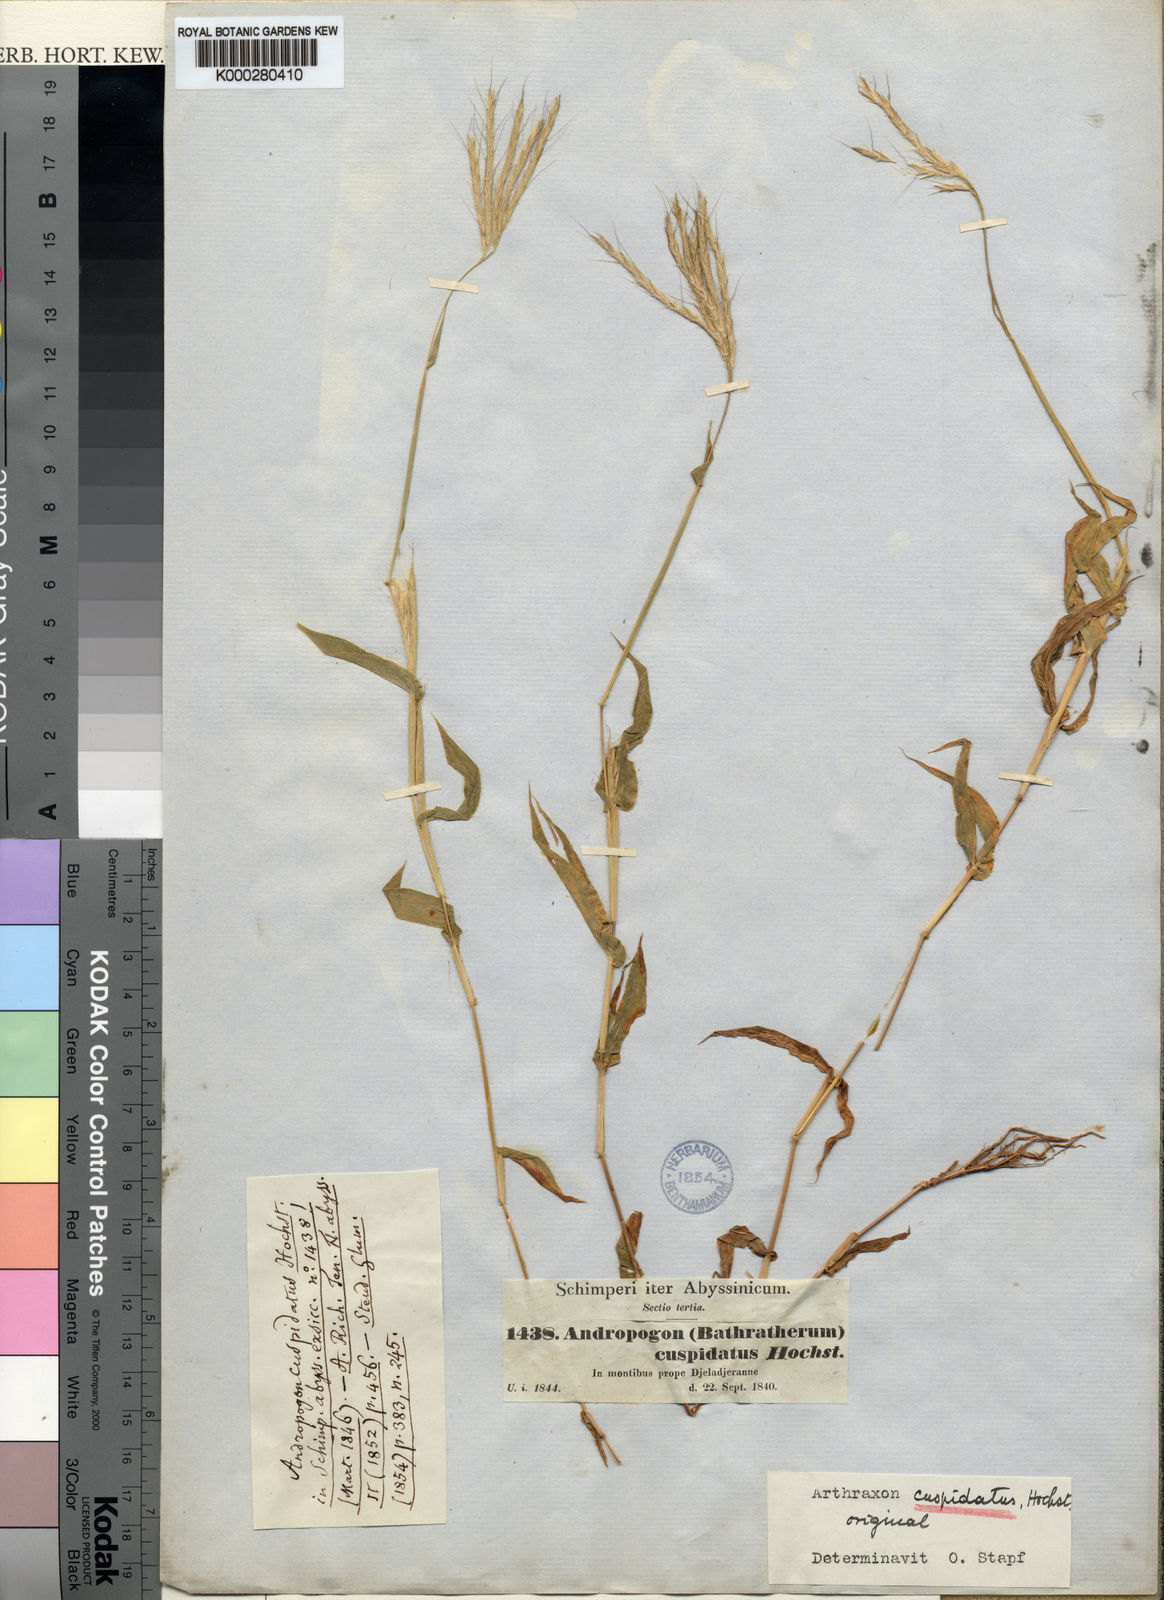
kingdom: Plantae
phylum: Tracheophyta
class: Liliopsida
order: Poales
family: Poaceae
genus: Arthraxon
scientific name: Arthraxon cuspidatus
